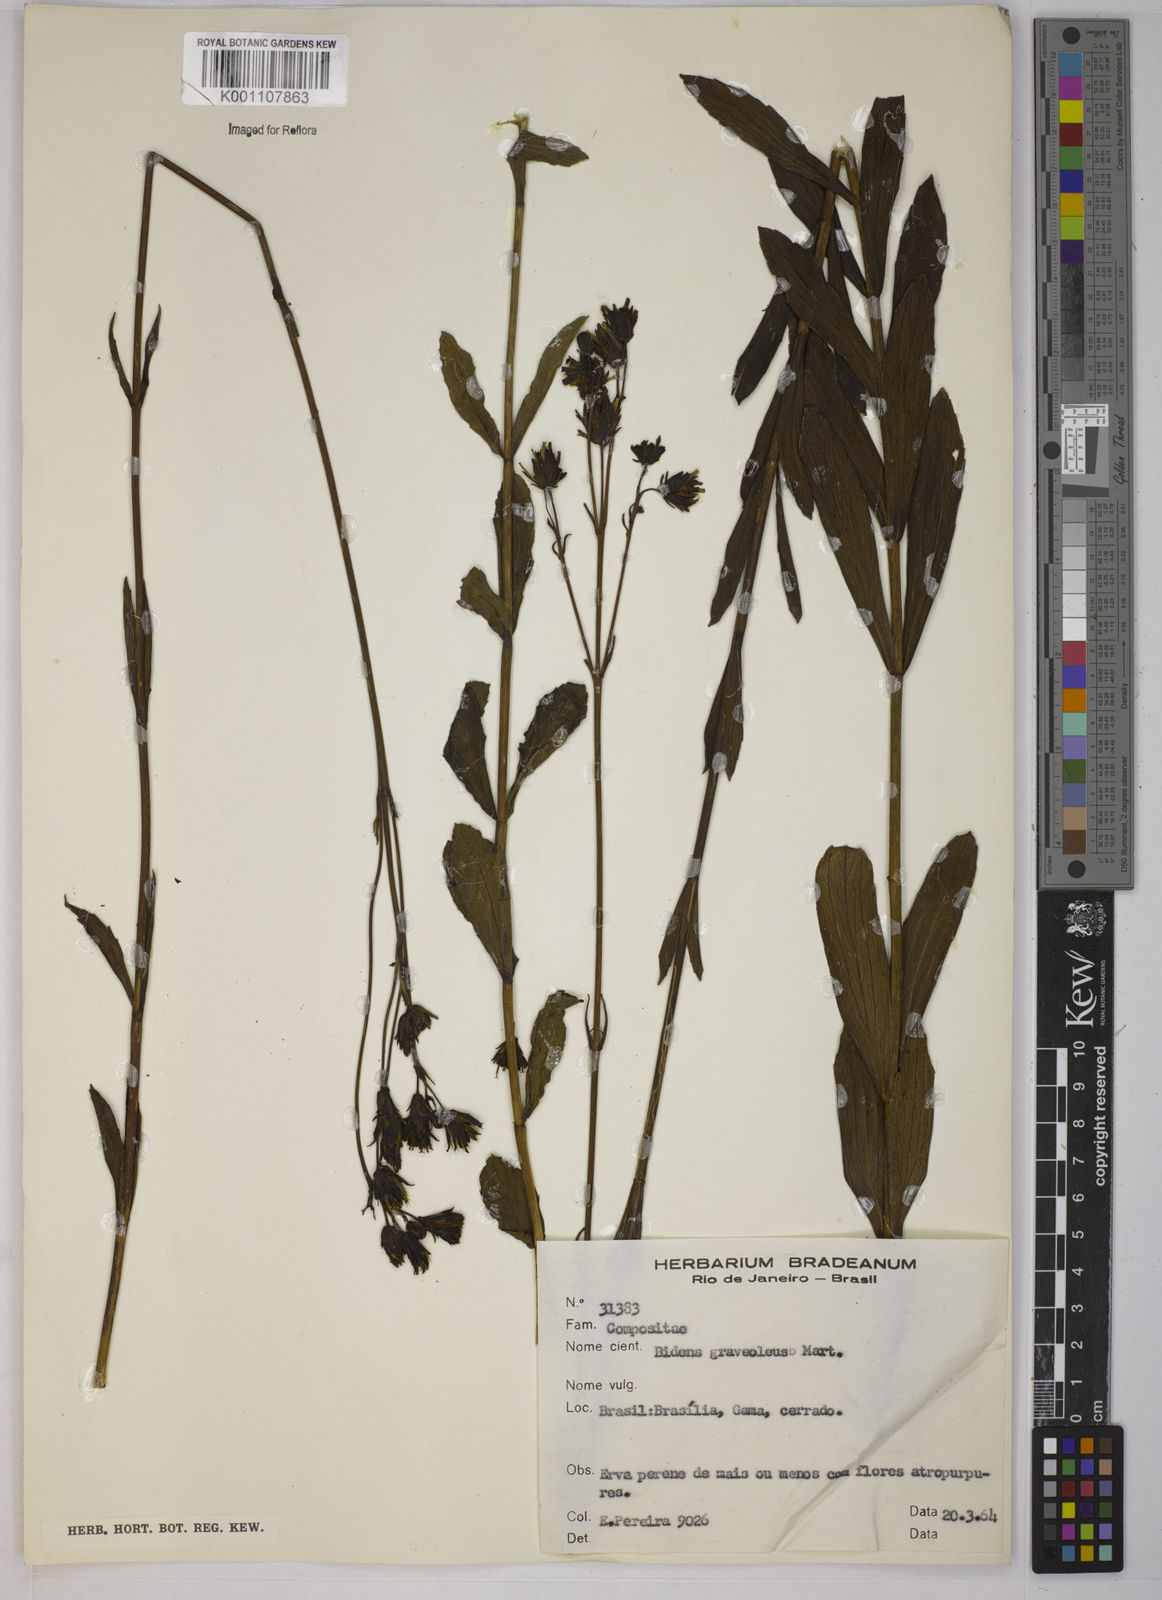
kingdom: Plantae
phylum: Tracheophyta
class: Magnoliopsida
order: Asterales
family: Asteraceae
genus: Bidens
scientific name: Bidens
